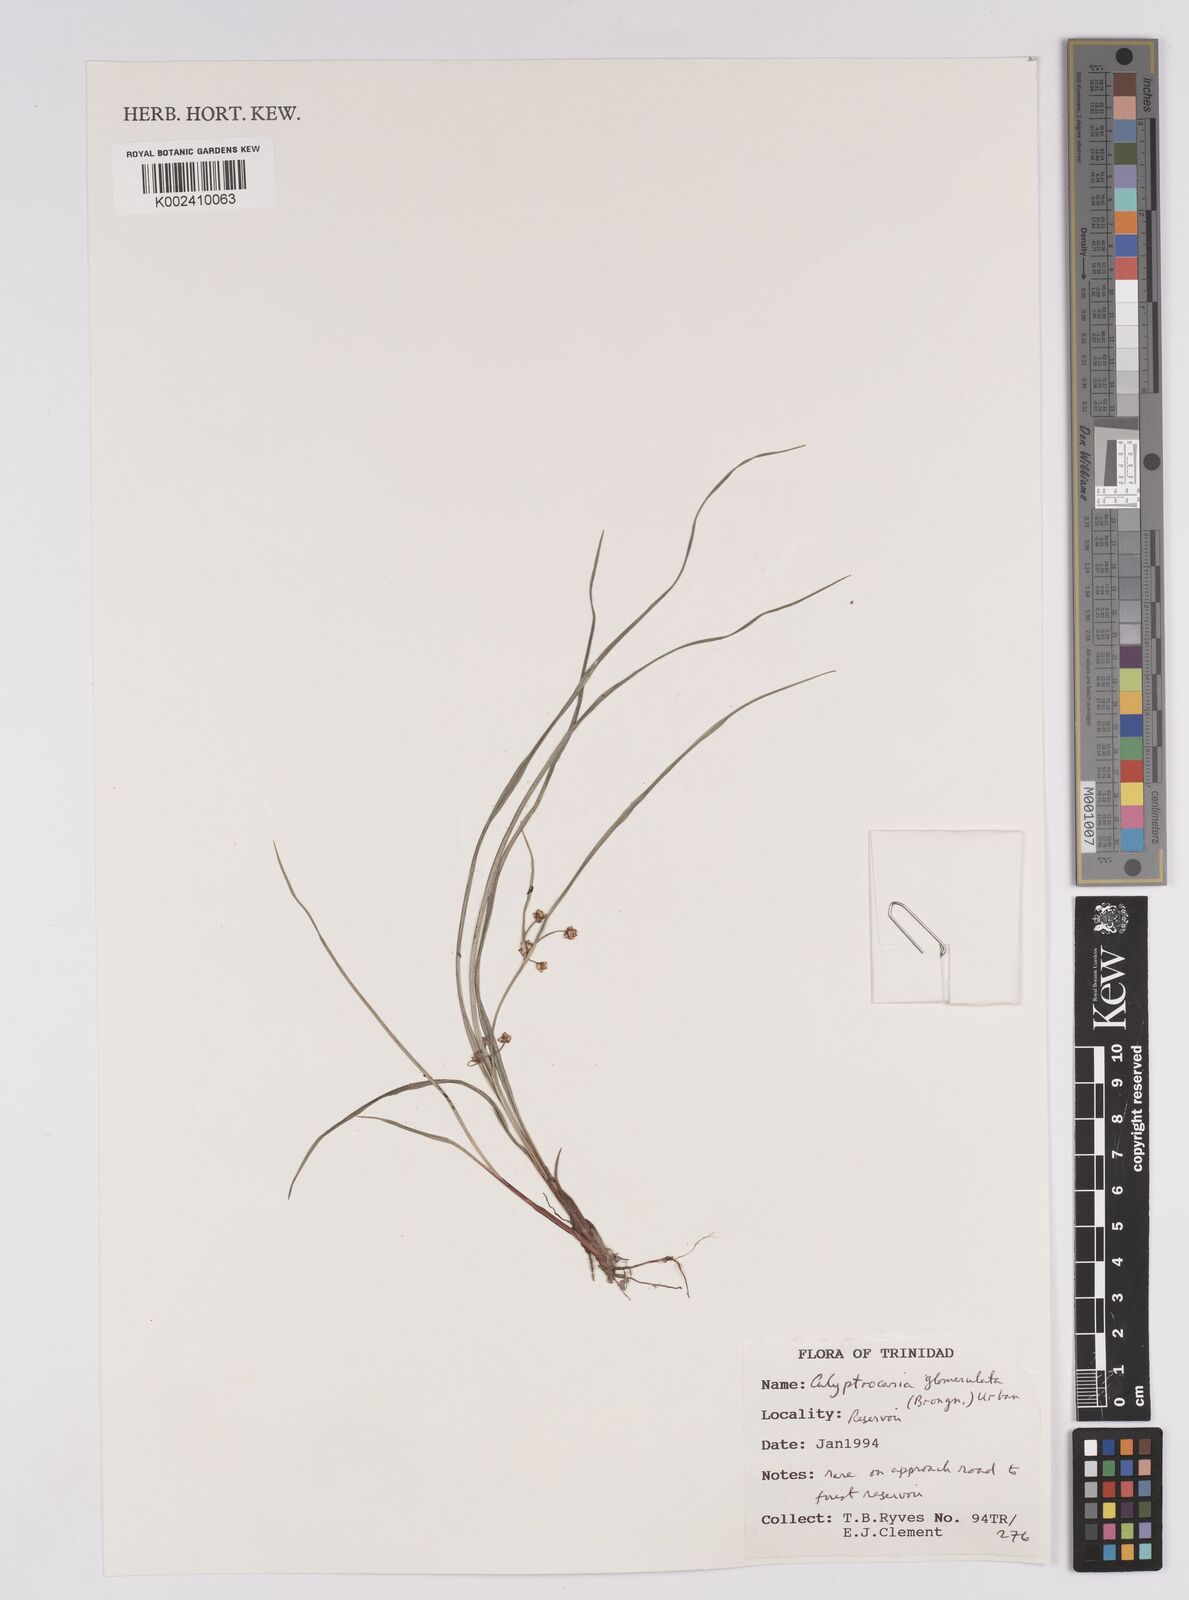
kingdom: Plantae
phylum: Tracheophyta
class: Liliopsida
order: Poales
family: Cyperaceae
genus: Calyptrocarya
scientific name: Calyptrocarya glomerulata
